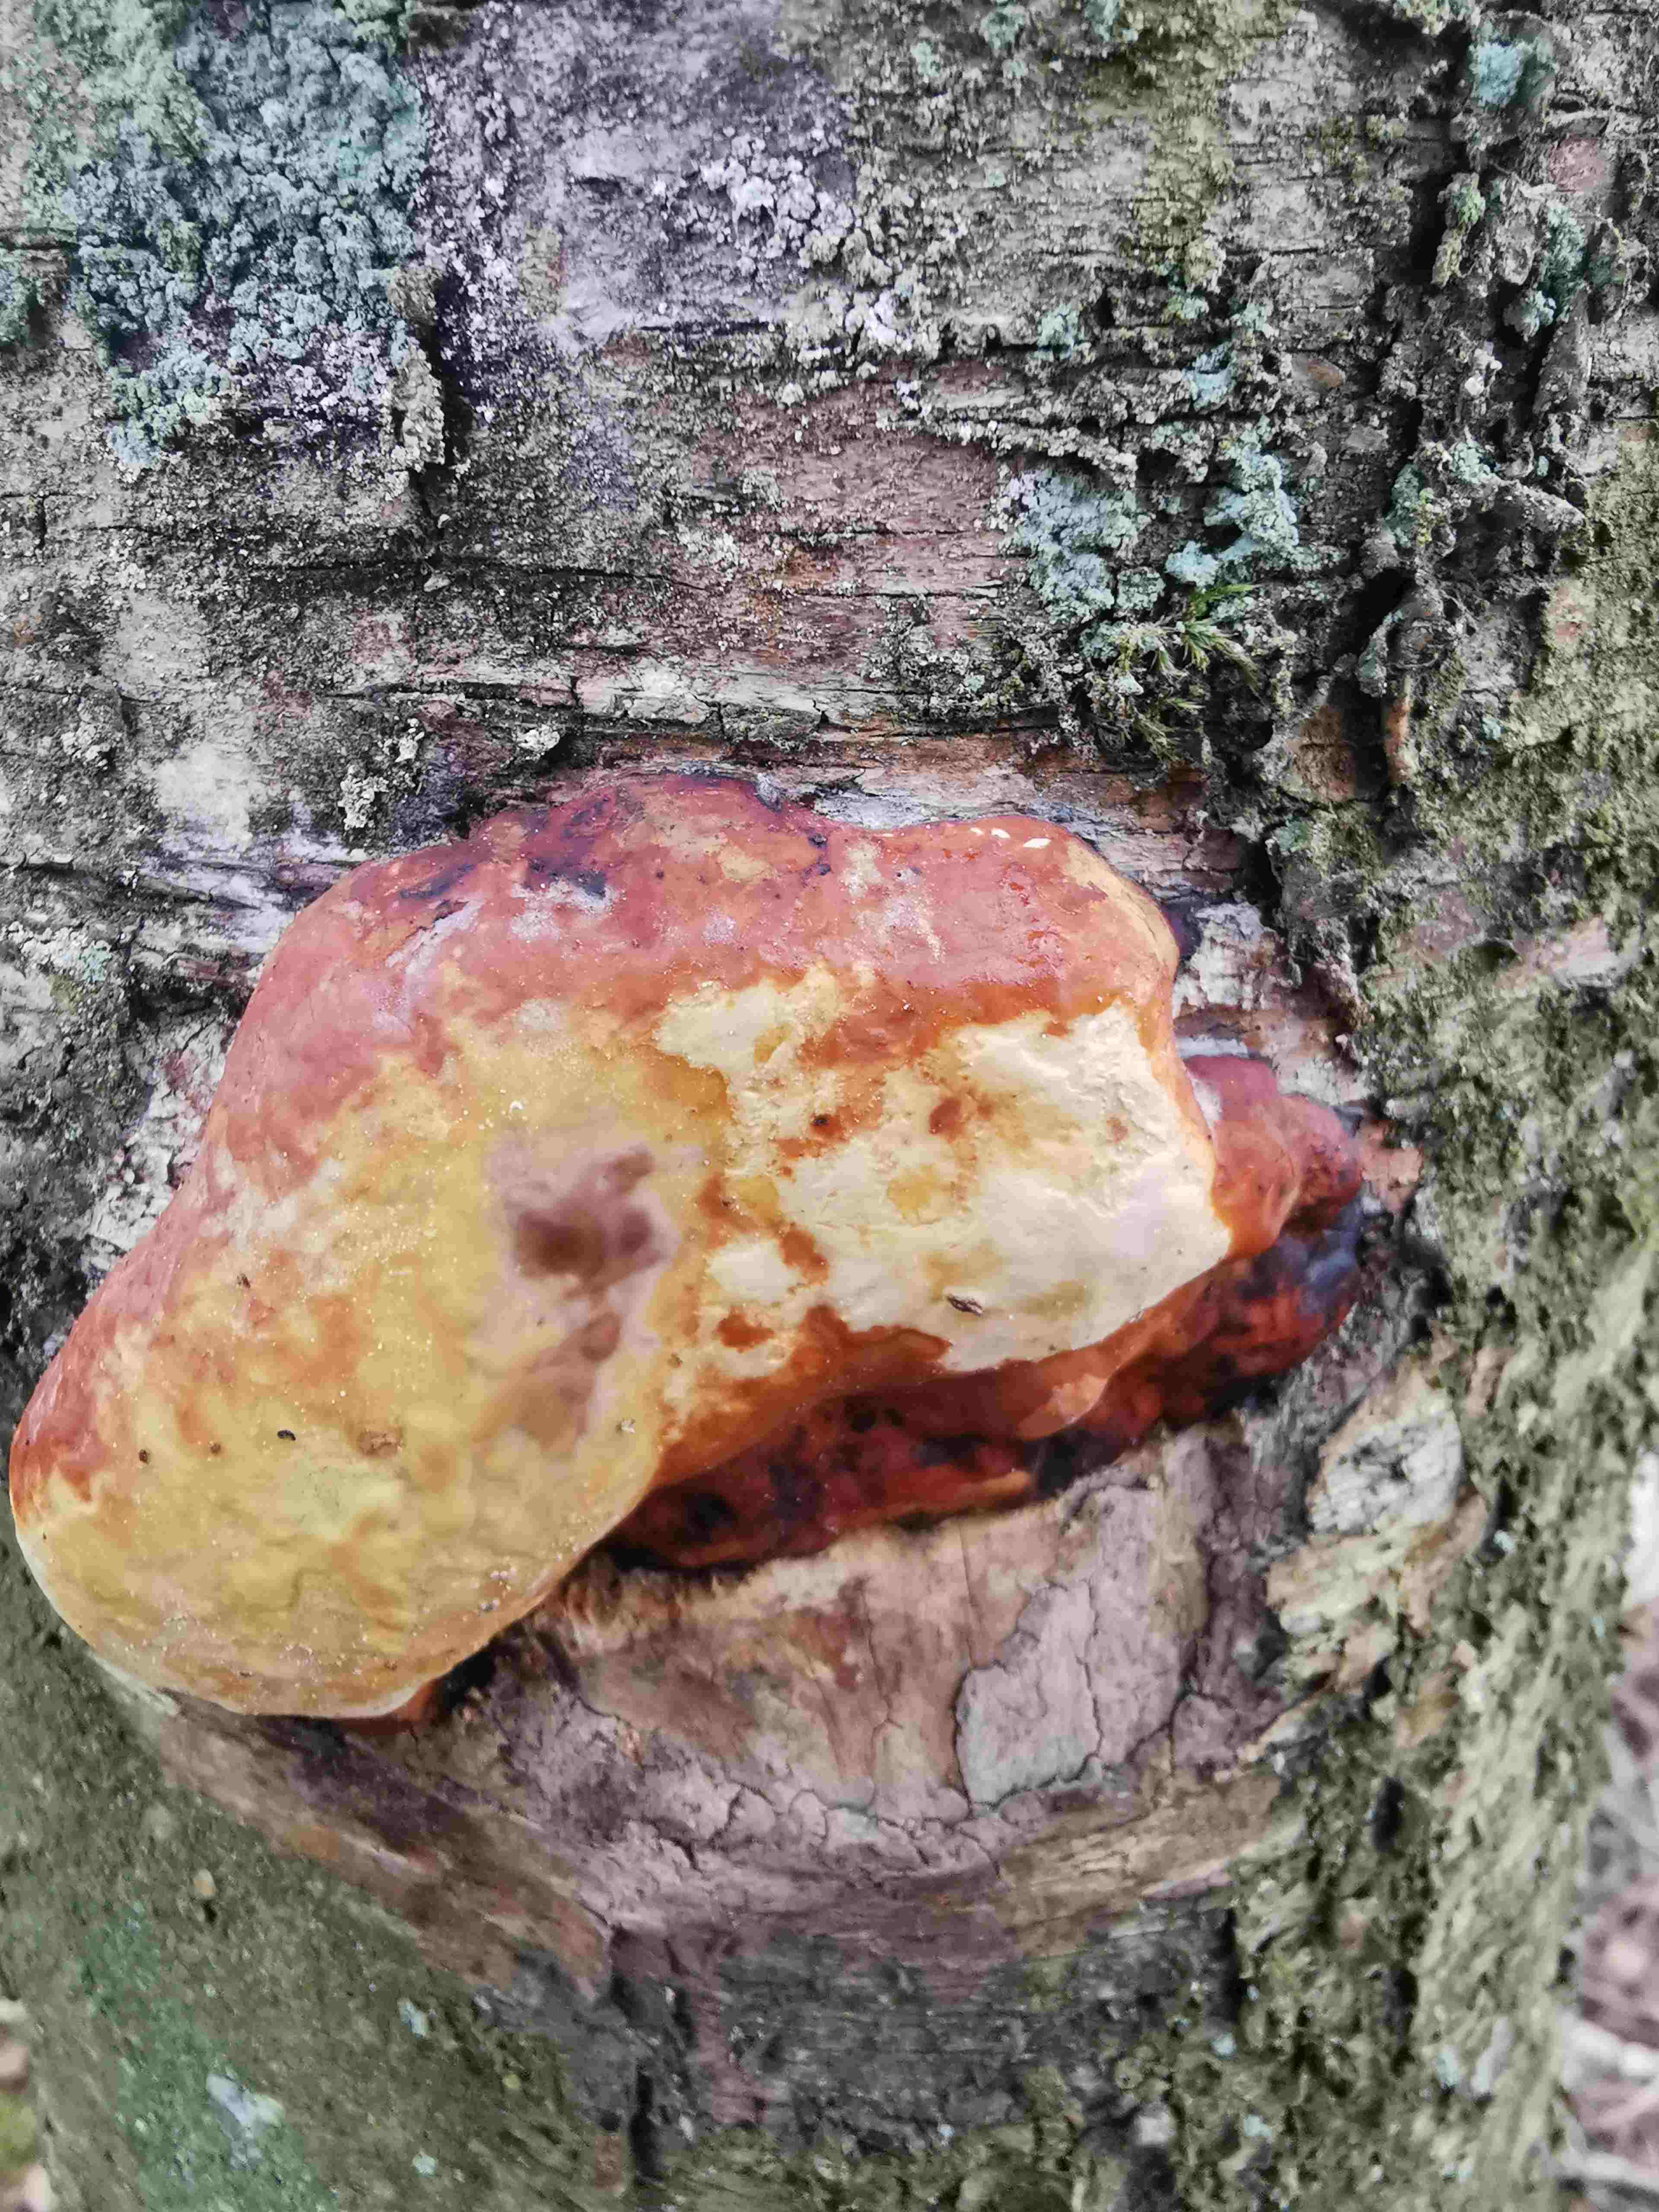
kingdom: Fungi
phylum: Basidiomycota
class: Agaricomycetes
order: Polyporales
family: Fomitopsidaceae
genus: Fomitopsis
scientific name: Fomitopsis pinicola
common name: randbæltet hovporesvamp
